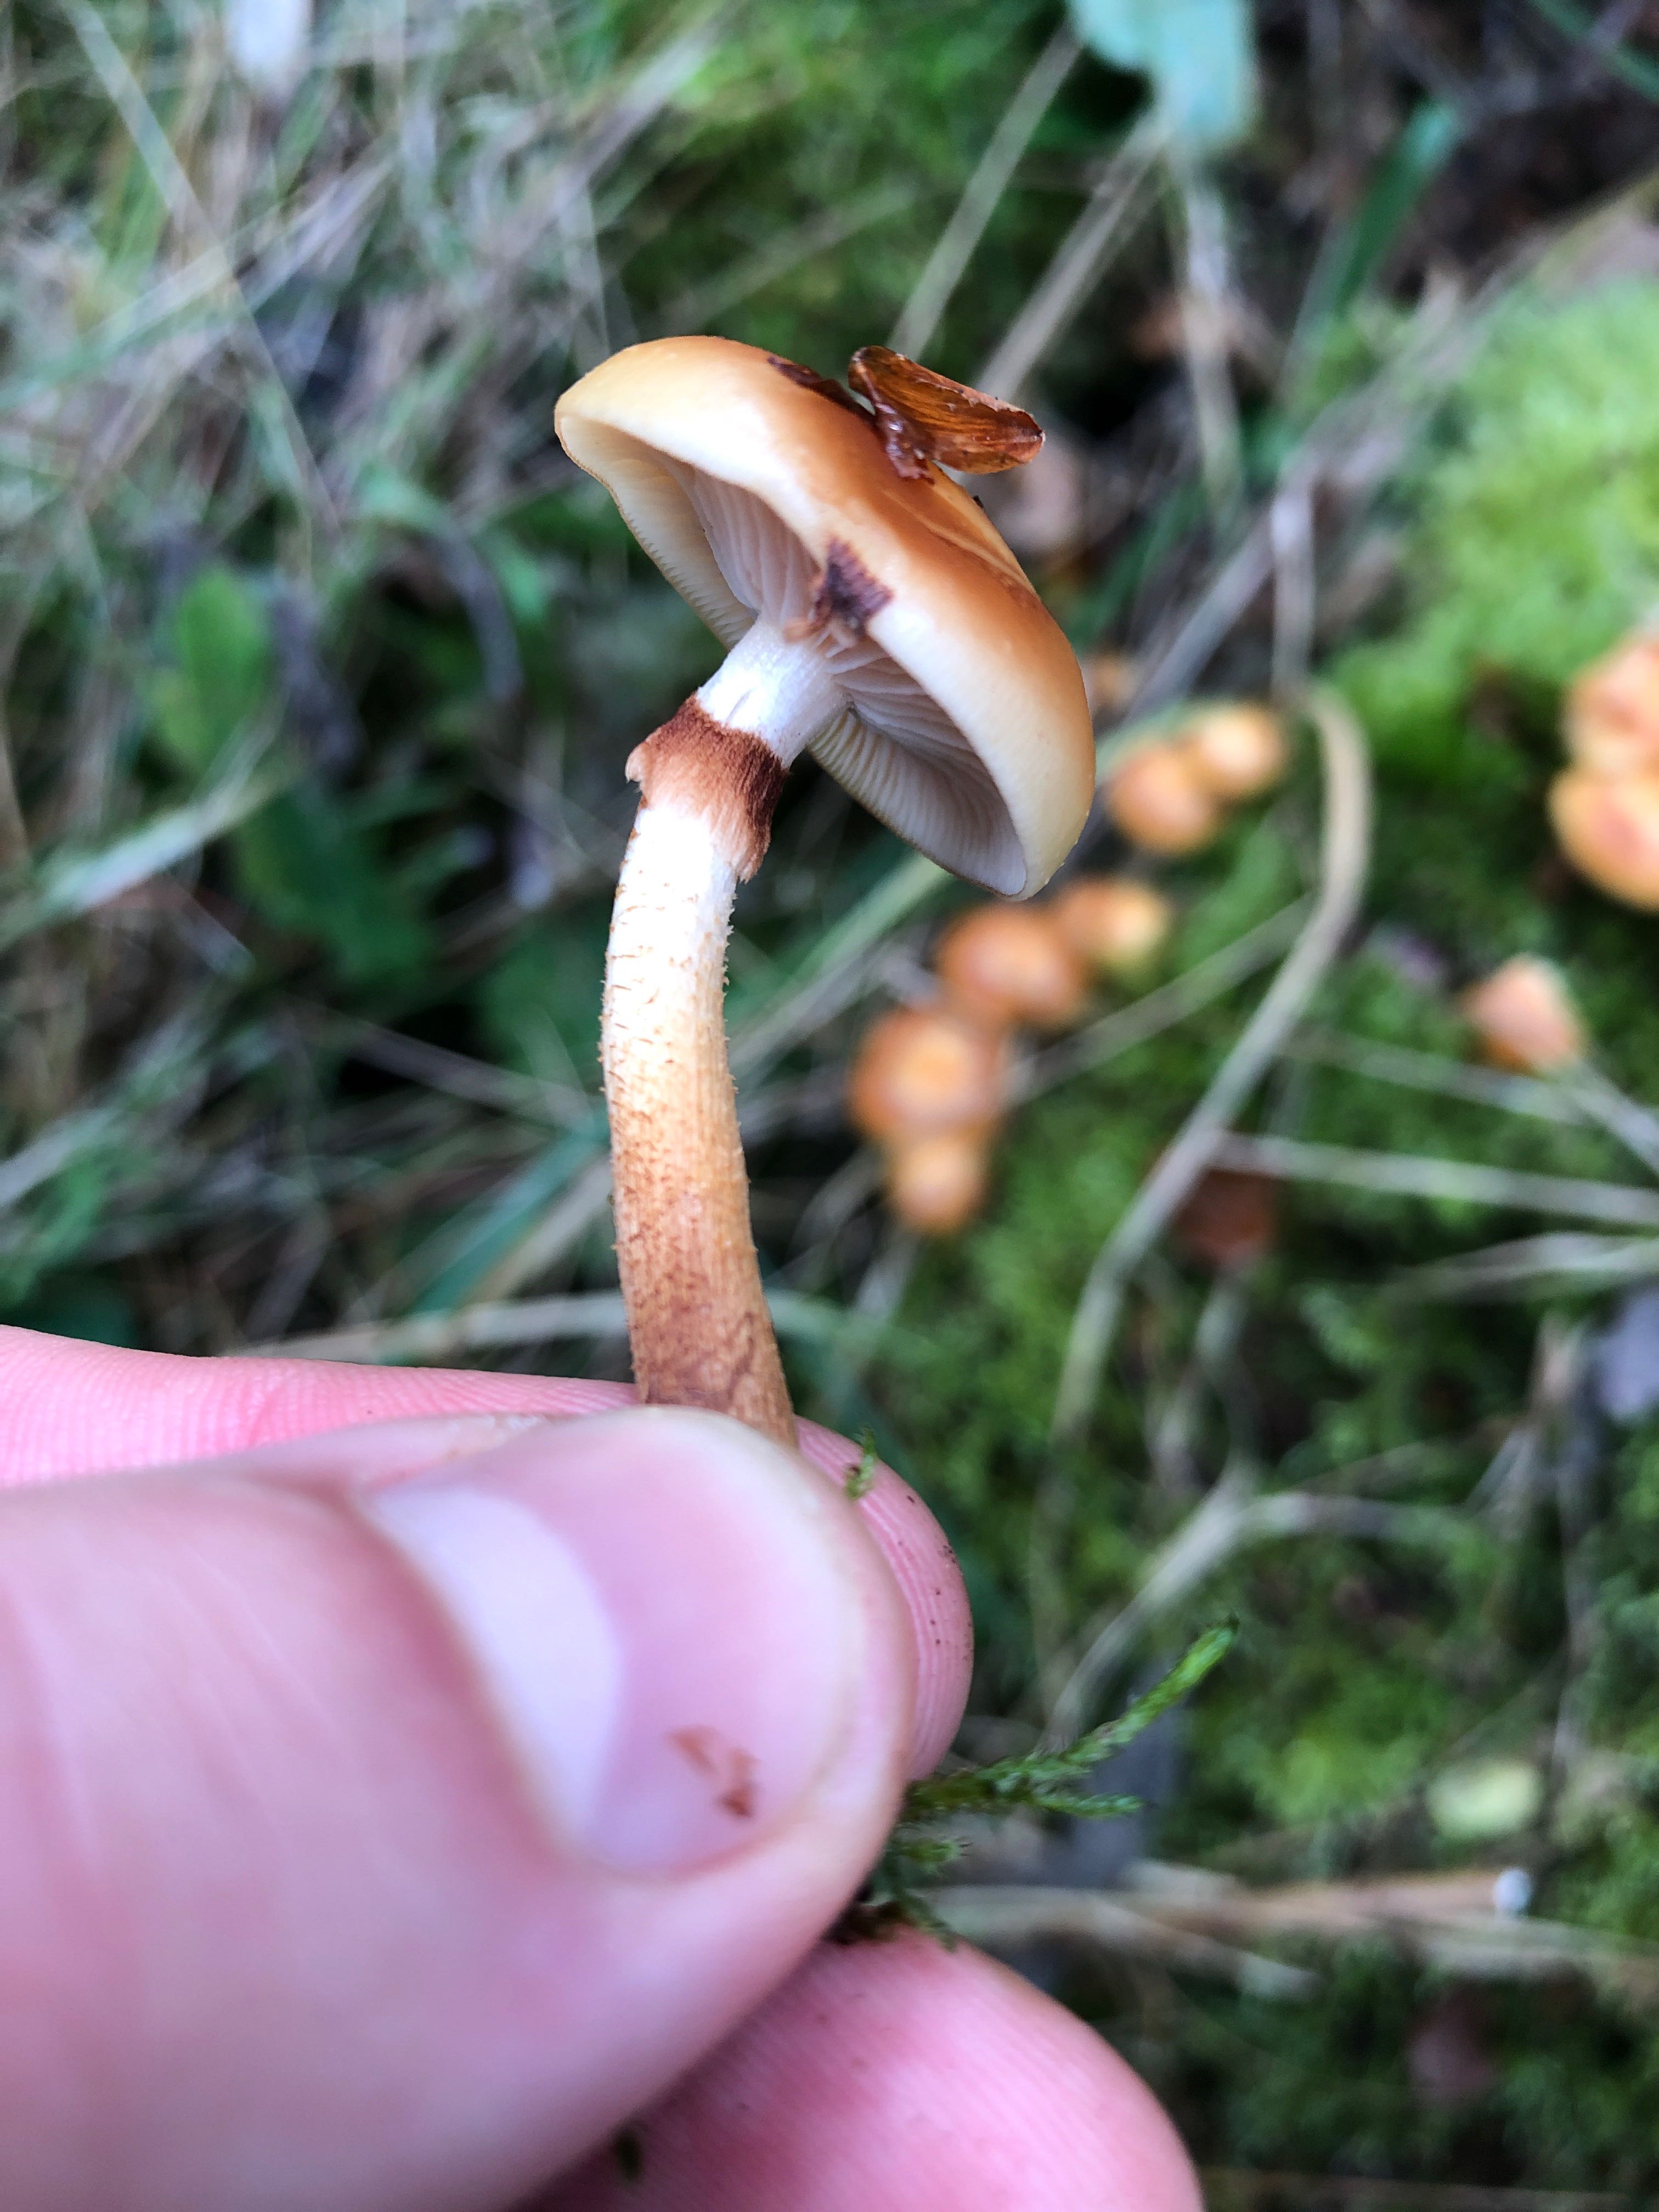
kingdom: Fungi
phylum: Basidiomycota
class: Agaricomycetes
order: Agaricales
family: Strophariaceae
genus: Kuehneromyces
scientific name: Kuehneromyces mutabilis
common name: foranderlig skælhat
